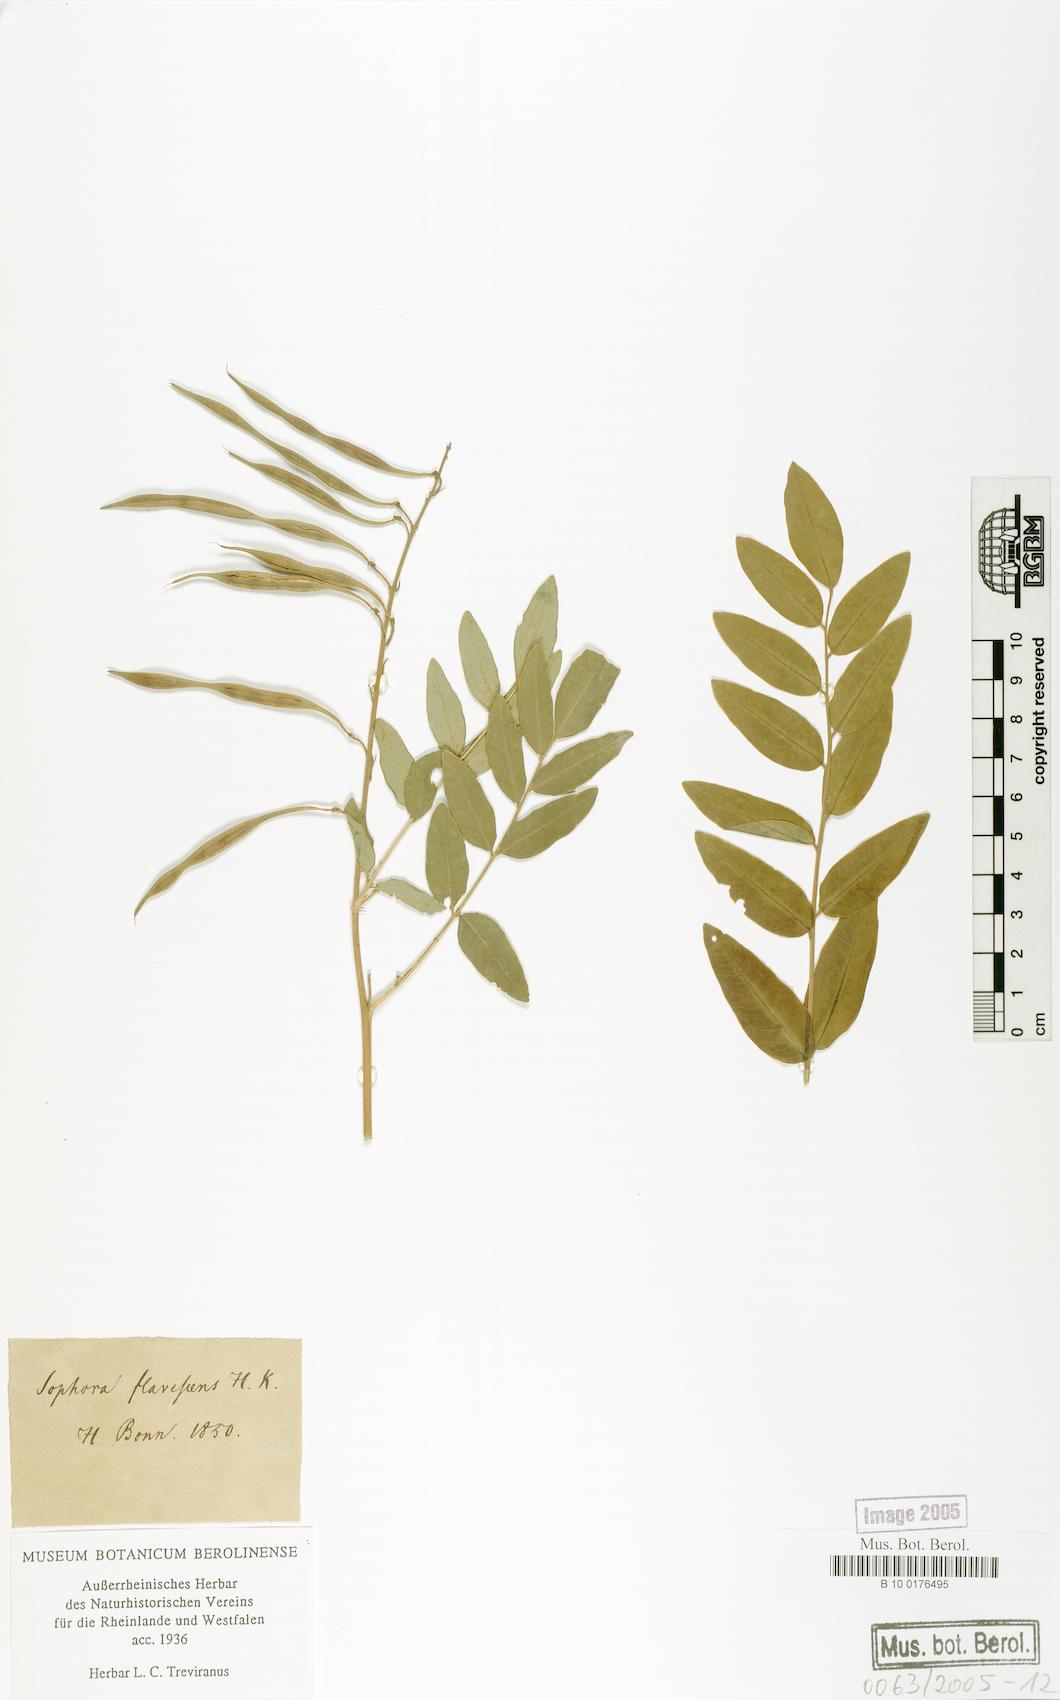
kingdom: Plantae
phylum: Tracheophyta
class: Magnoliopsida
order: Fabales
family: Fabaceae
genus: Sophora
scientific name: Sophora flavescens
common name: Shrubby sophora
